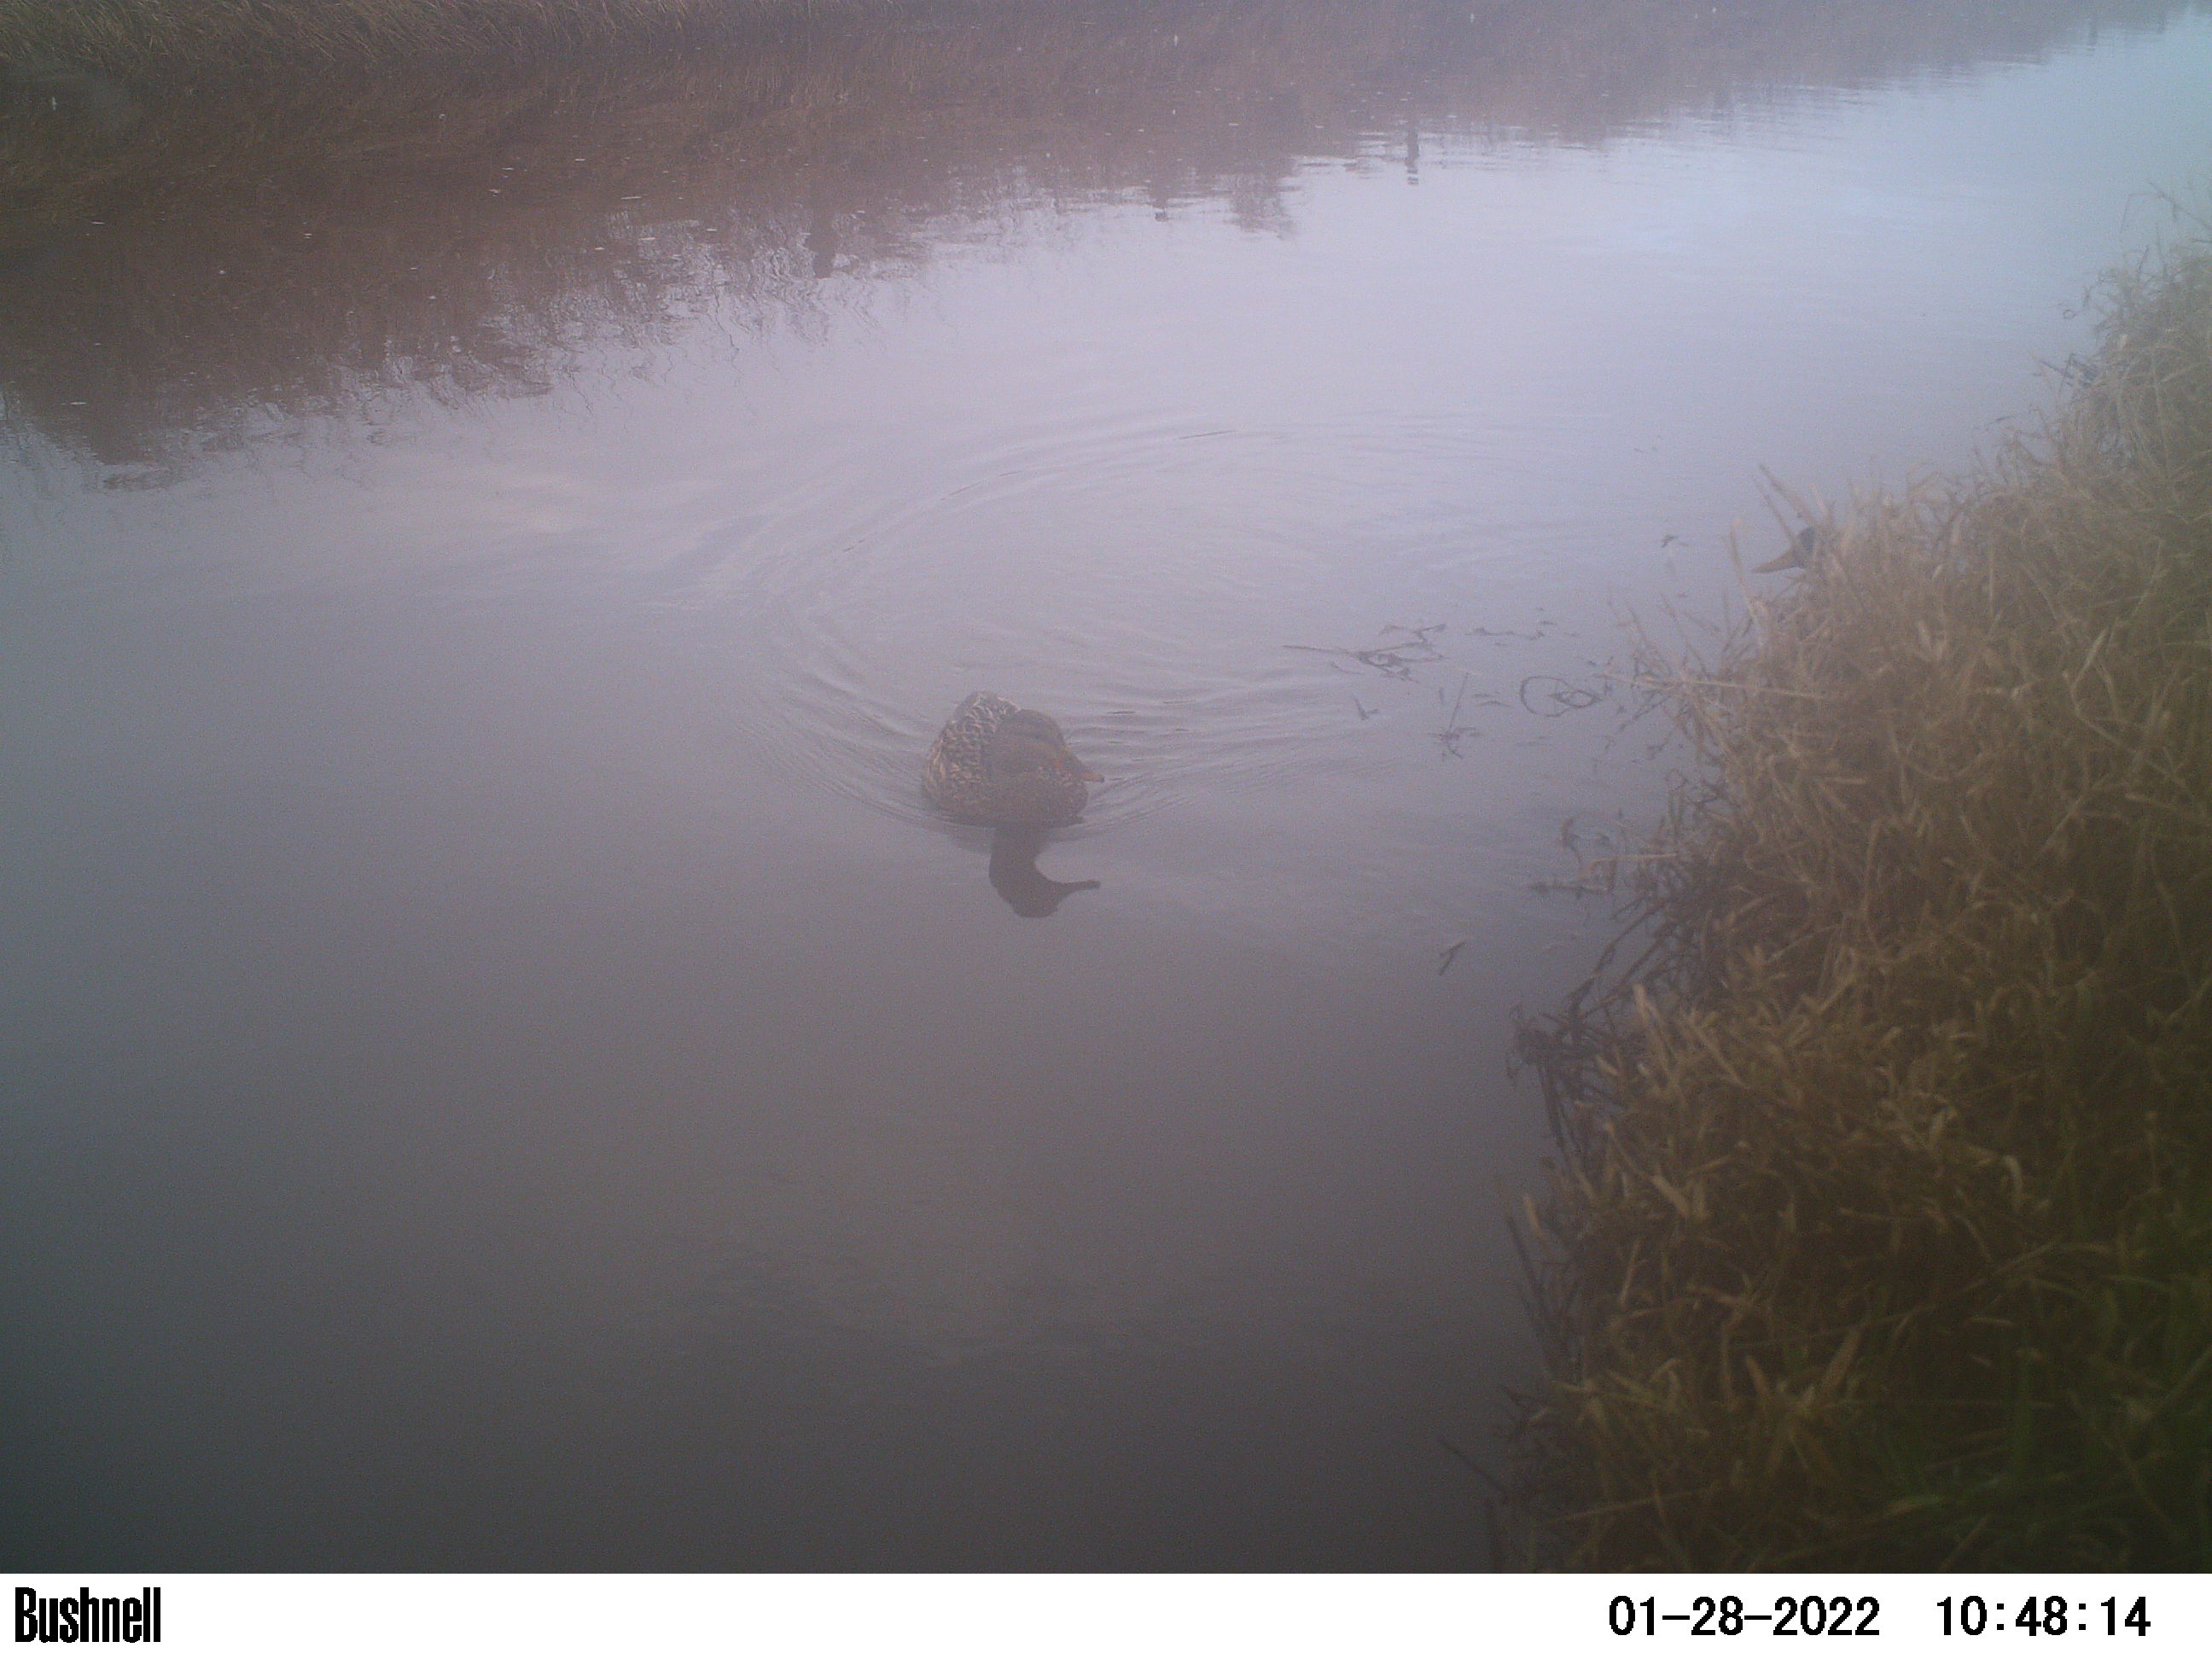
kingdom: Animalia
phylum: Chordata
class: Aves
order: Anseriformes
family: Anatidae
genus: Anas
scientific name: Anas
